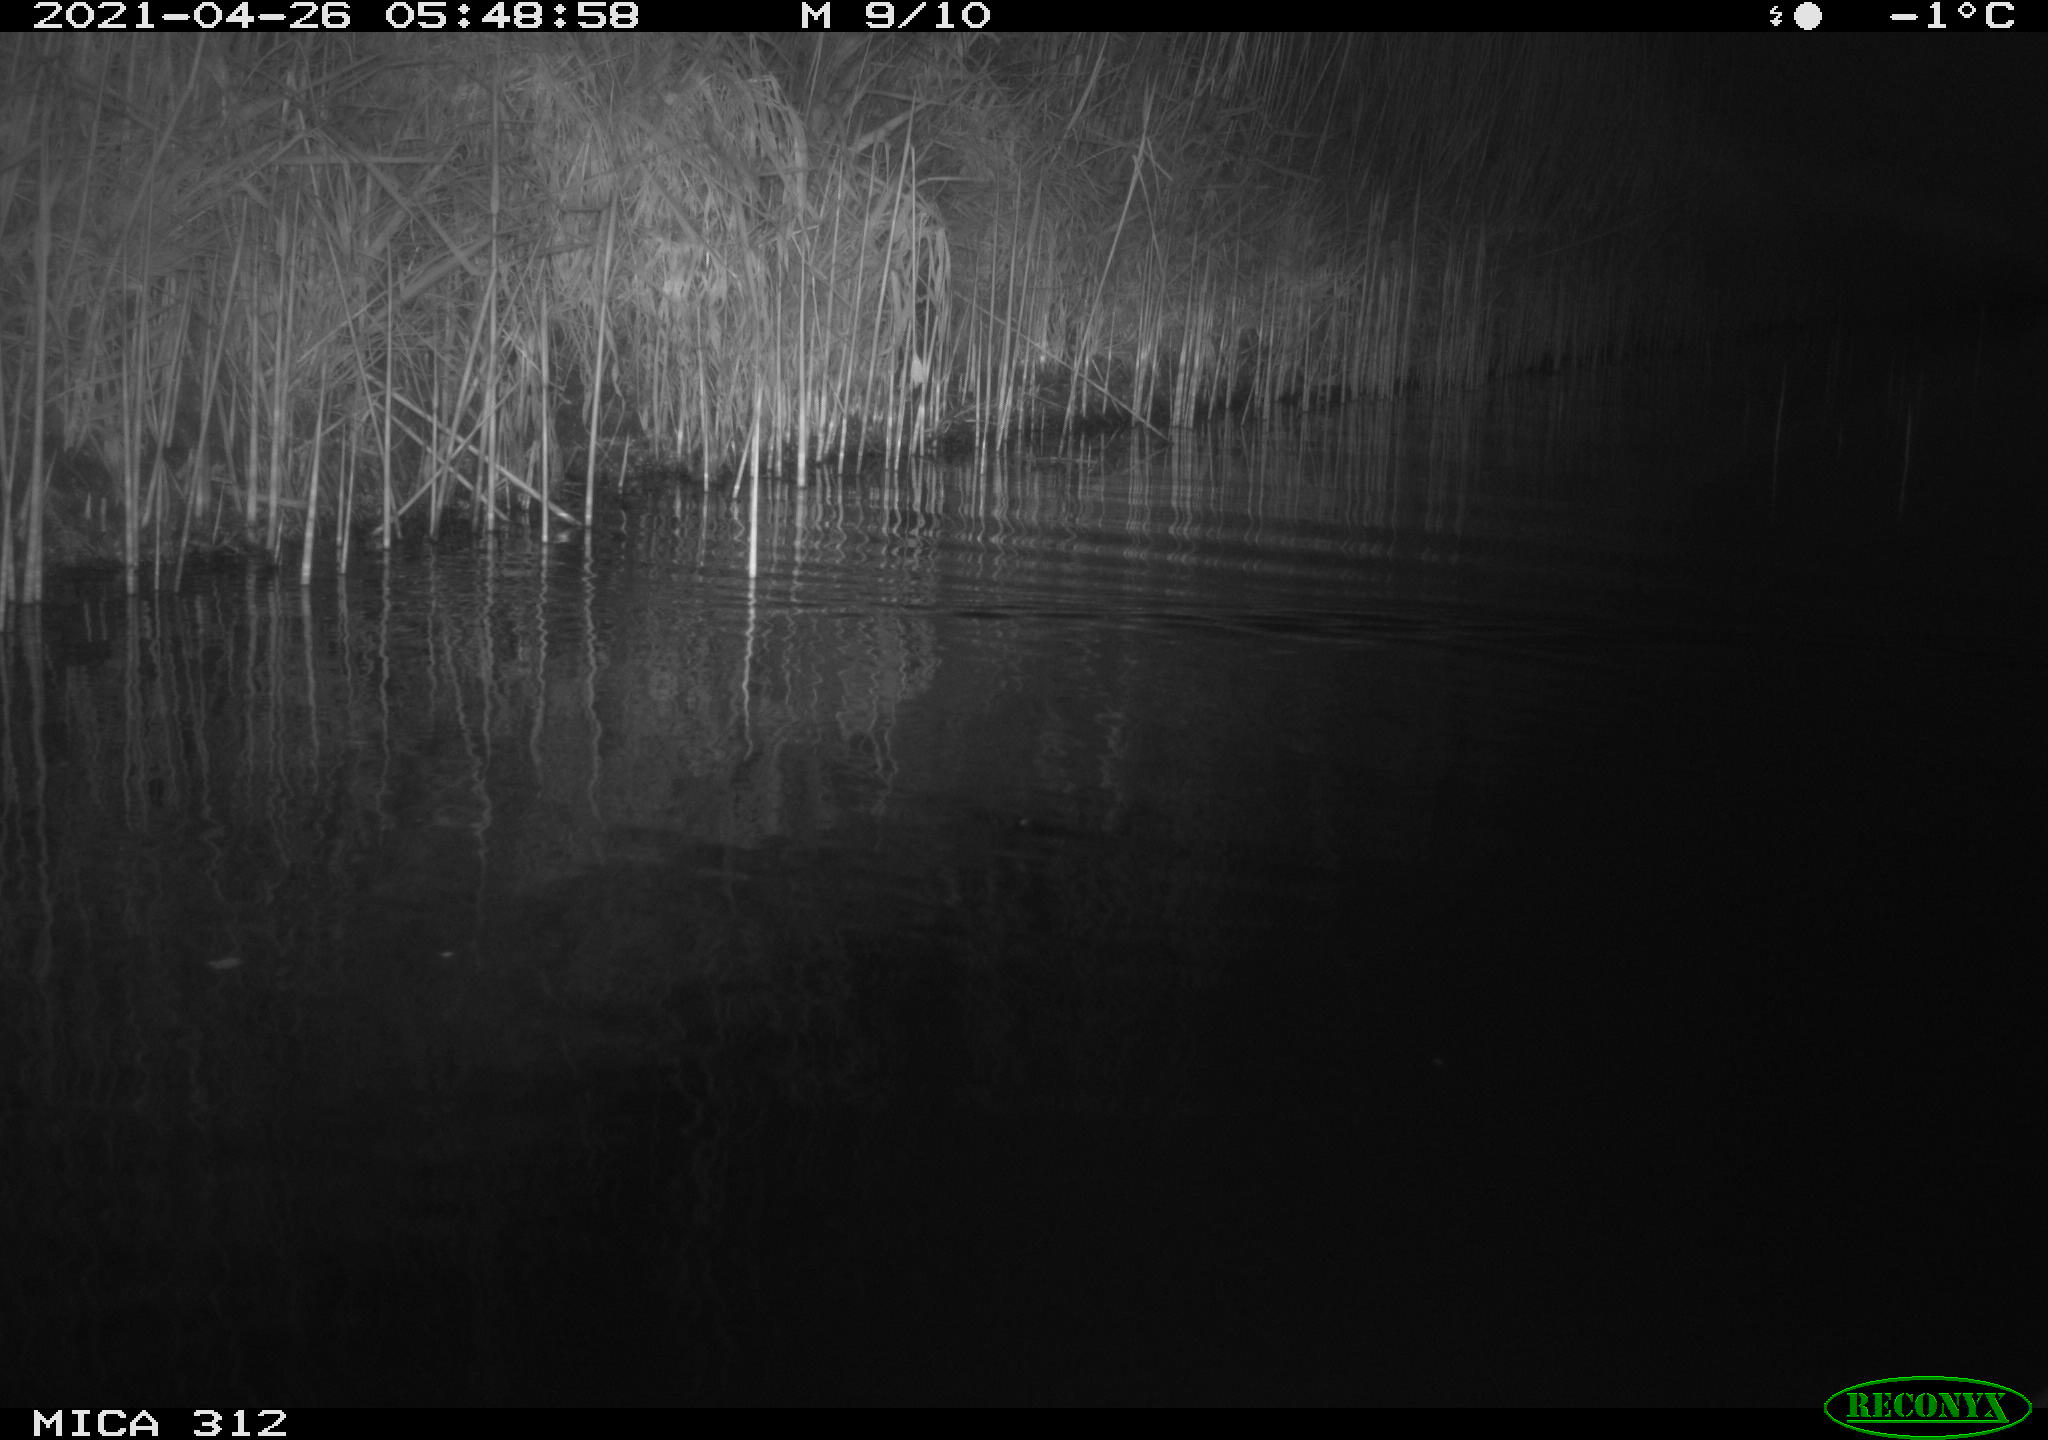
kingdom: Animalia
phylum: Chordata
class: Mammalia
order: Rodentia
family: Cricetidae
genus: Ondatra
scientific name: Ondatra zibethicus
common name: Muskrat
